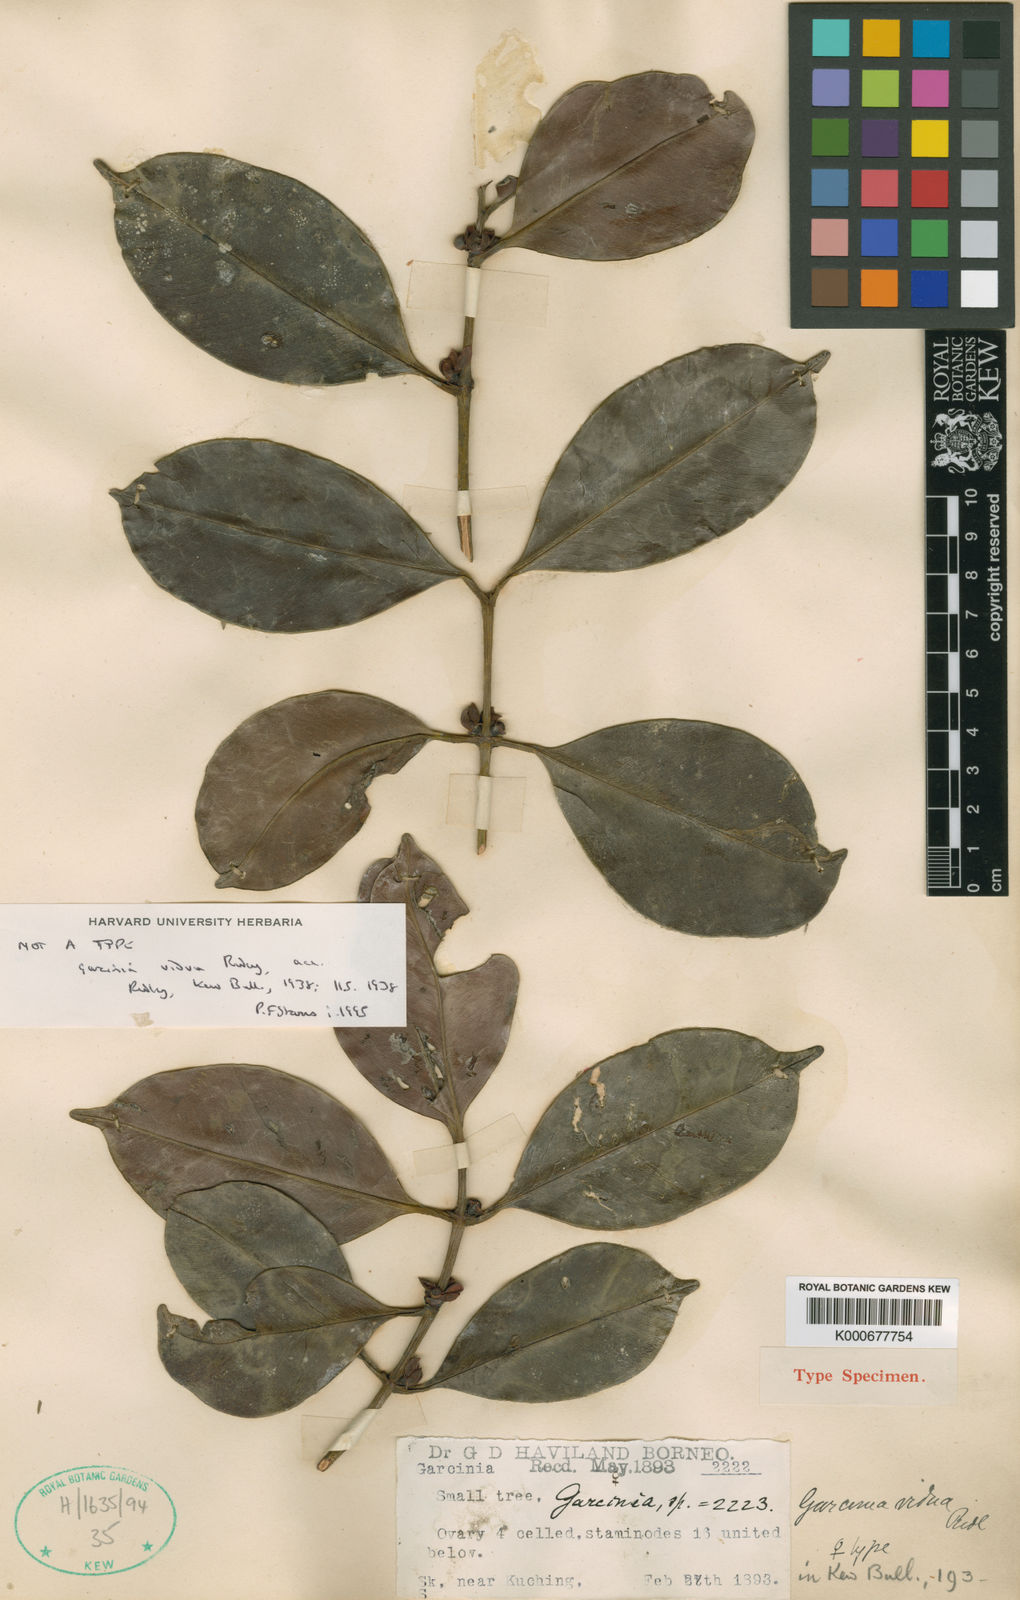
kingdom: Plantae
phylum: Tracheophyta
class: Magnoliopsida
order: Malpighiales
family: Clusiaceae
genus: Garcinia
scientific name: Garcinia vidua
